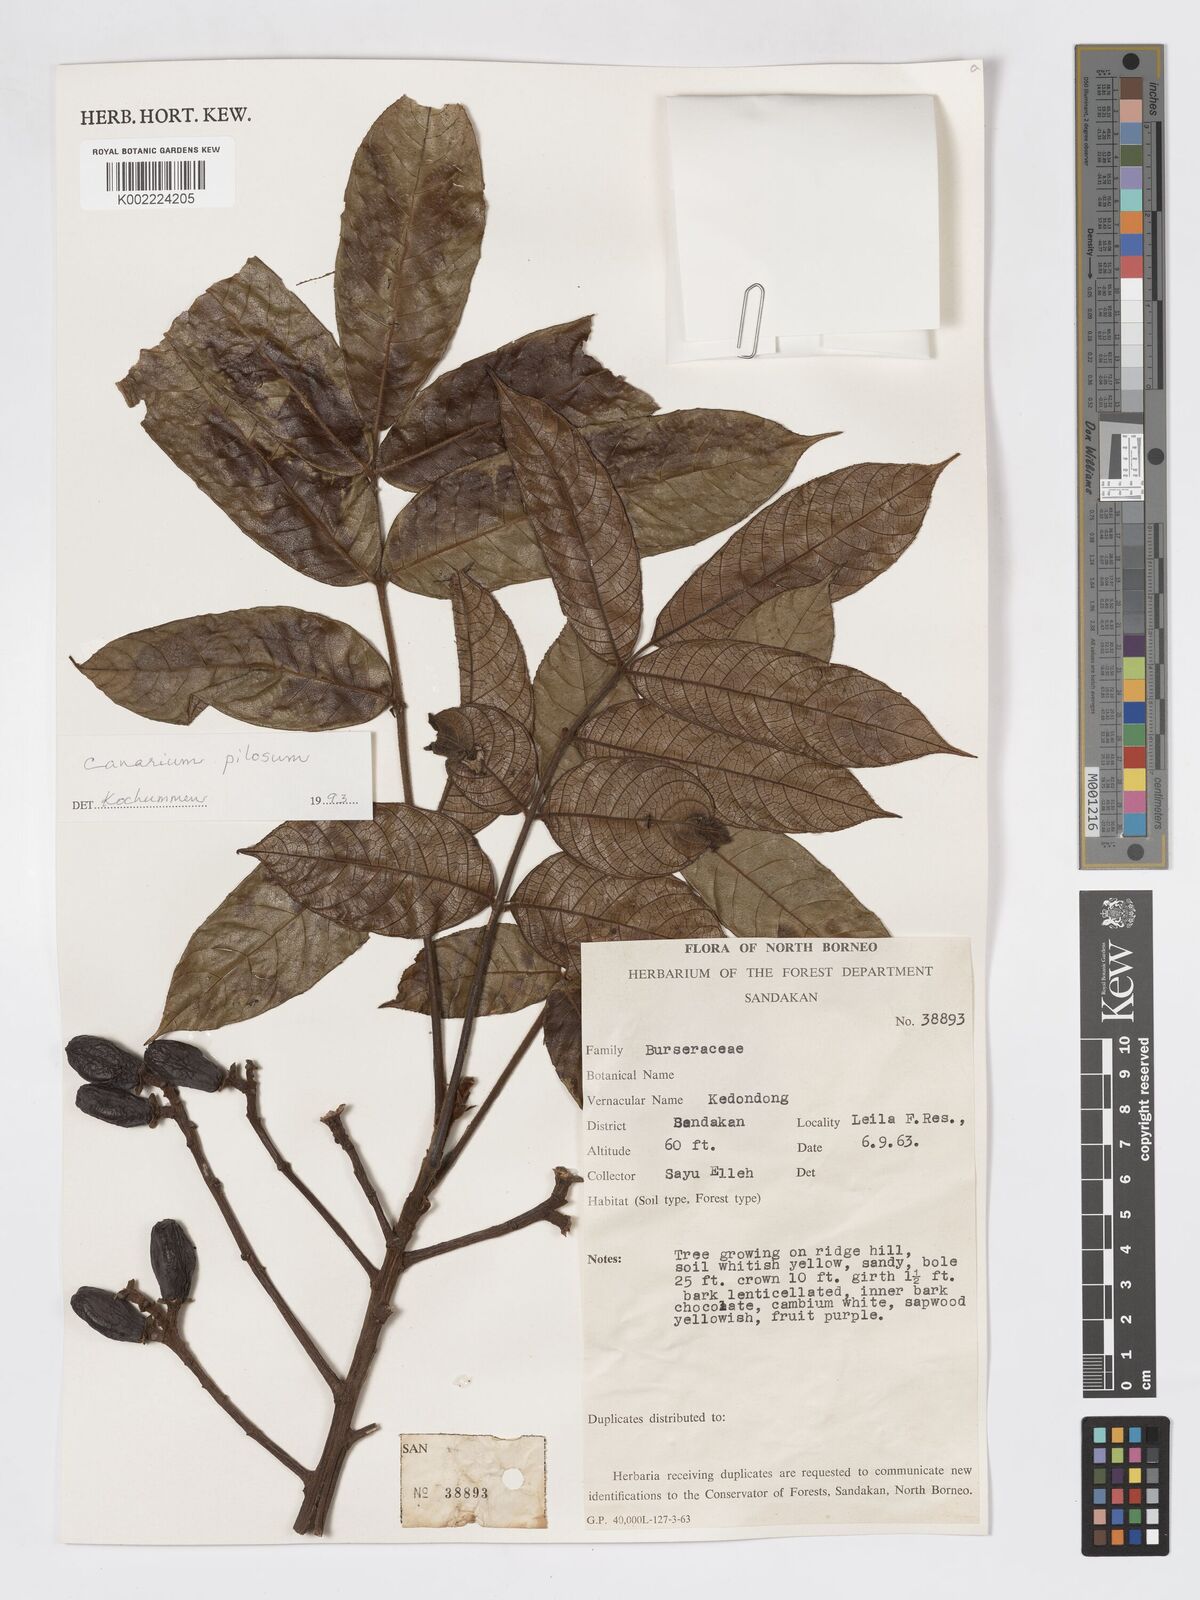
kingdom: Plantae
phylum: Tracheophyta
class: Magnoliopsida
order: Sapindales
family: Burseraceae
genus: Canarium
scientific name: Canarium pilosum
